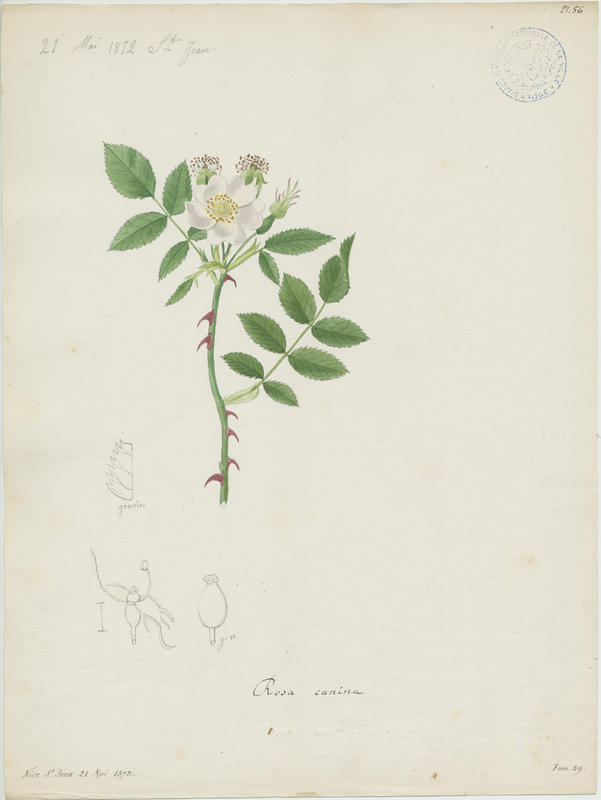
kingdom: Plantae
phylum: Tracheophyta
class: Magnoliopsida
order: Rosales
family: Rosaceae
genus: Rosa
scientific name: Rosa canina
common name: Dog rose
